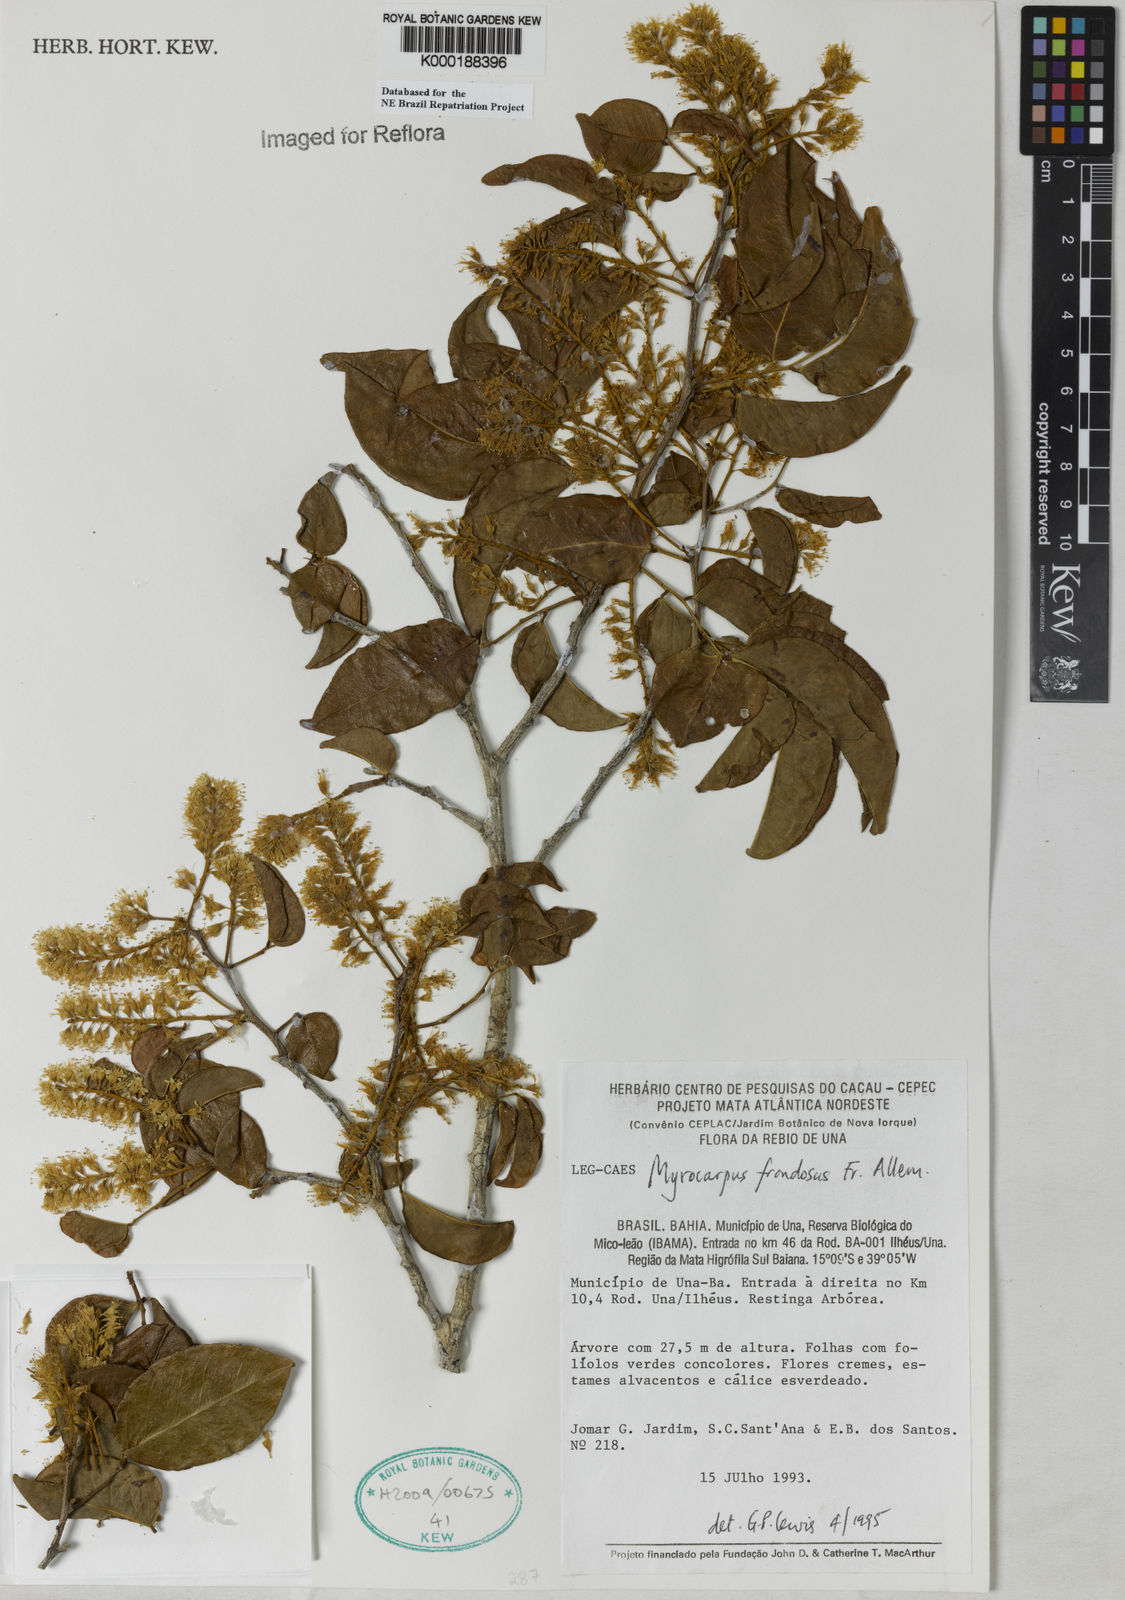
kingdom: Plantae
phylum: Tracheophyta
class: Magnoliopsida
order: Fabales
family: Fabaceae
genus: Myrocarpus
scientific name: Myrocarpus frondosus
